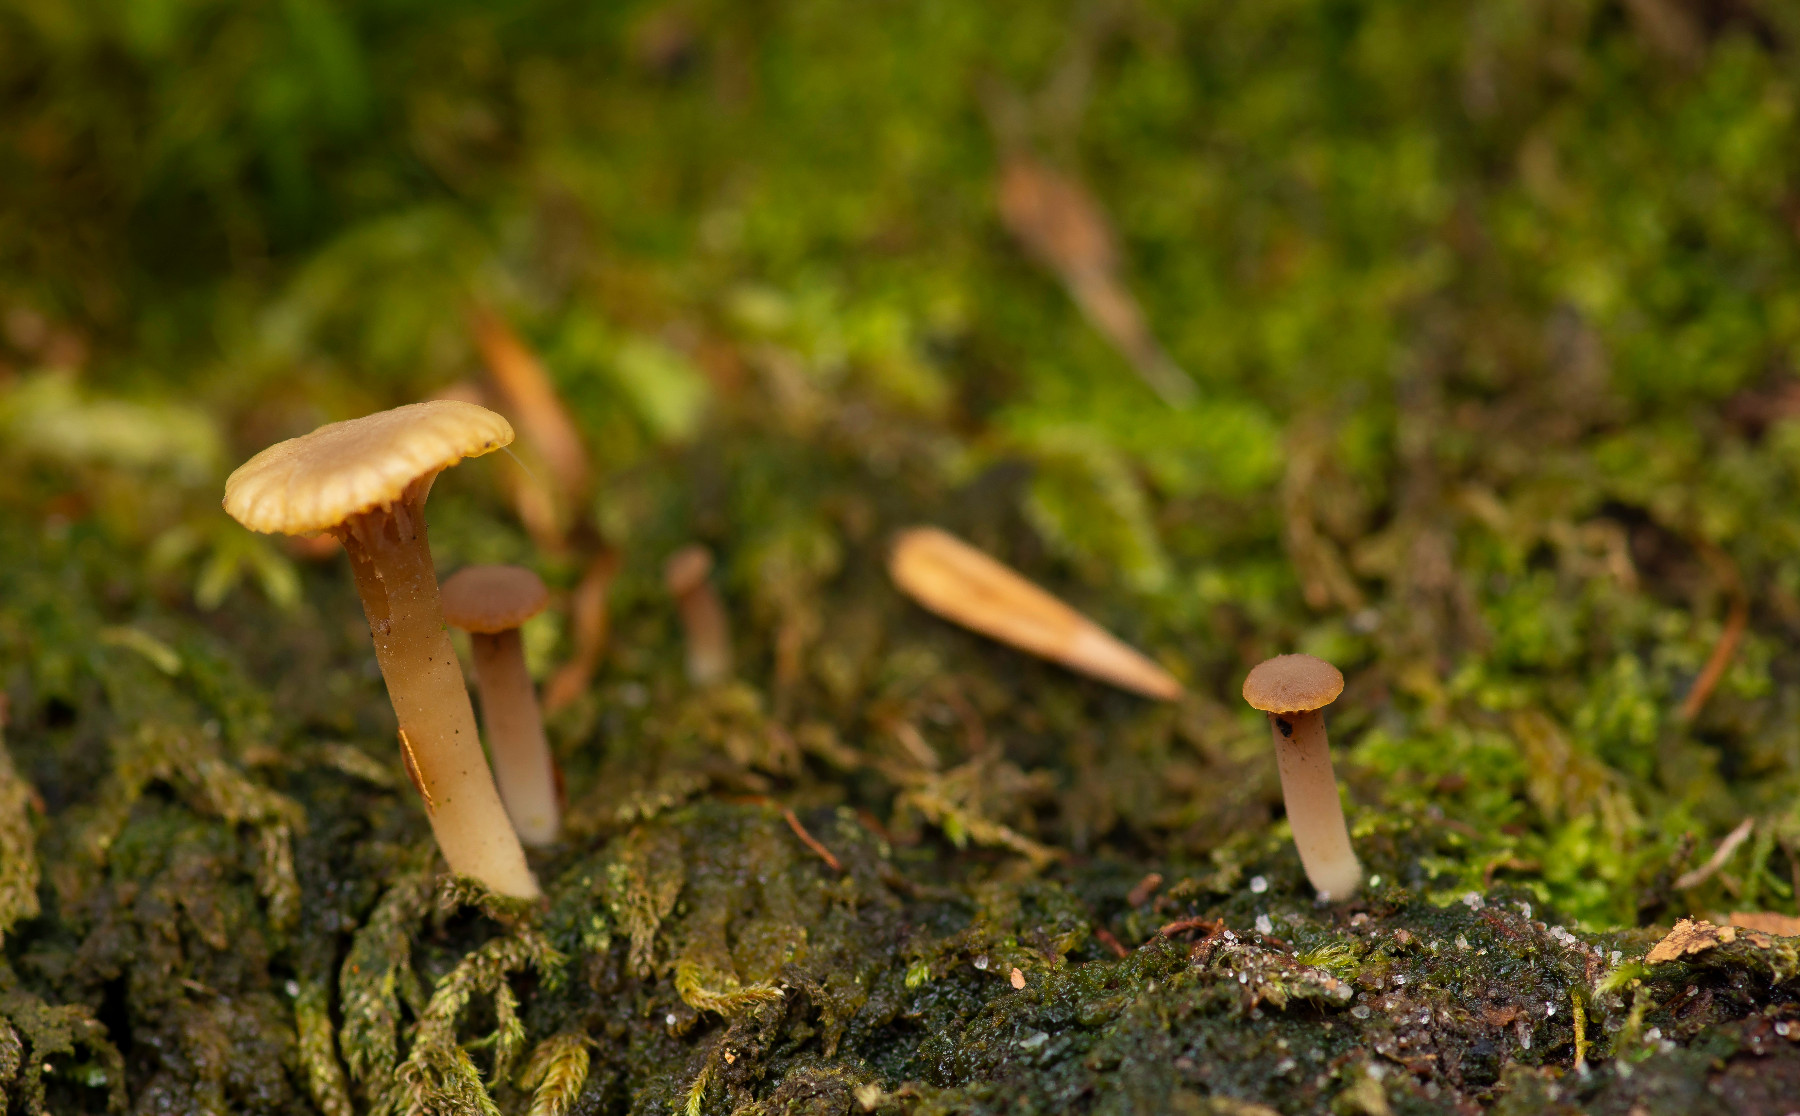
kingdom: Fungi
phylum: Basidiomycota
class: Agaricomycetes
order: Agaricales
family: Hygrophoraceae
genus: Lichenomphalia
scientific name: Lichenomphalia umbellifera
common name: tørve-lavhat
